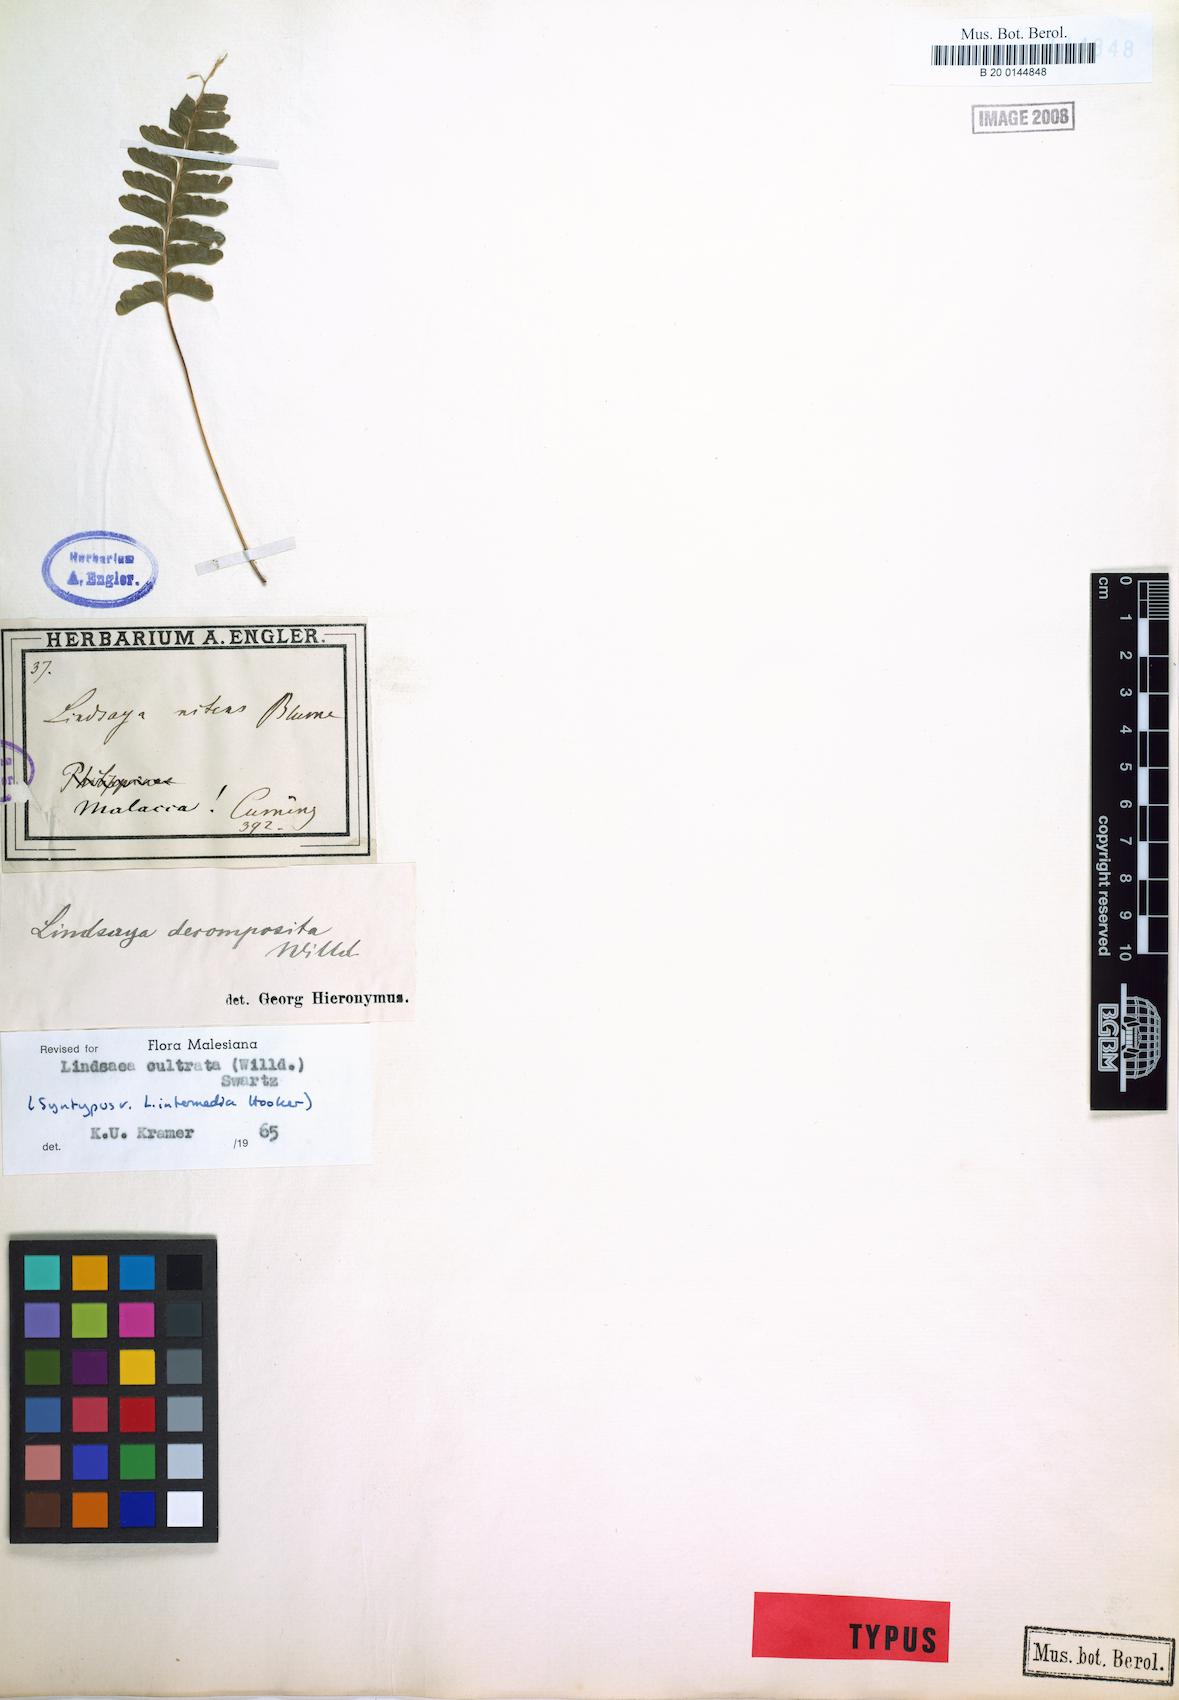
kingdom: Plantae
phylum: Tracheophyta
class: Polypodiopsida
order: Polypodiales
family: Lindsaeaceae
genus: Lindsaea
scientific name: Lindsaea cultrata
